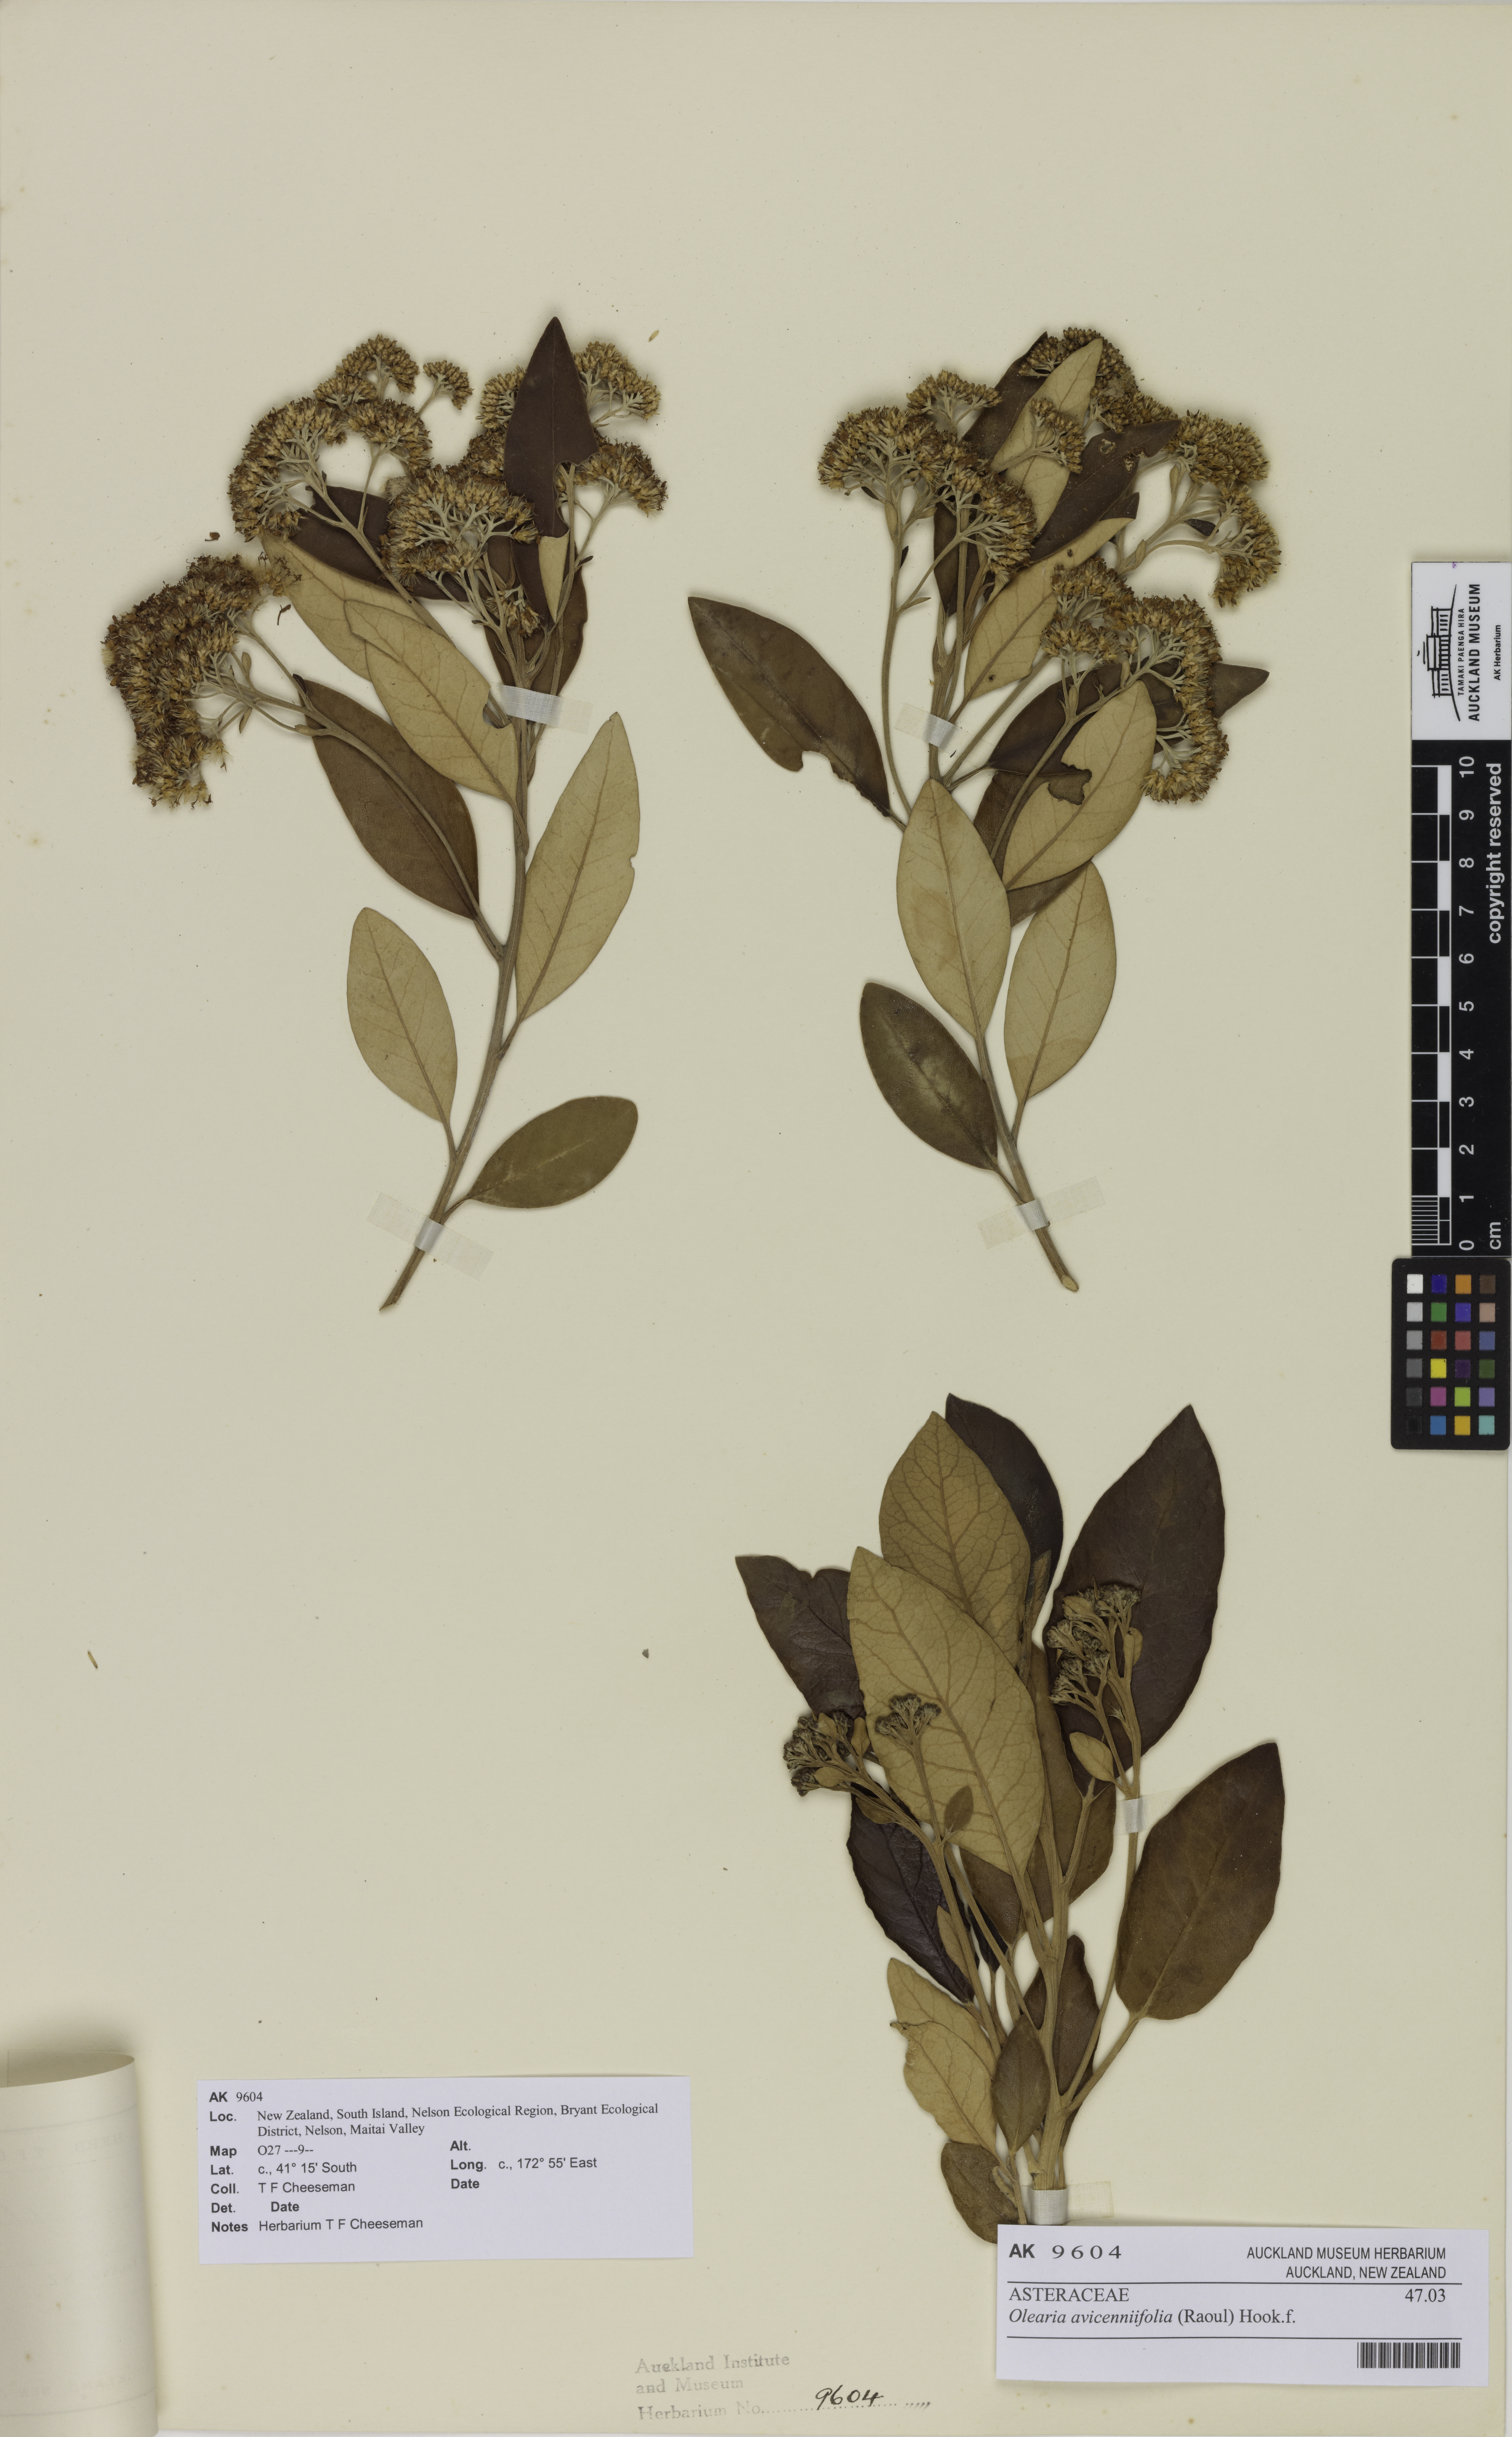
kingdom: Plantae
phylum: Tracheophyta
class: Magnoliopsida
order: Asterales
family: Asteraceae
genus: Olearia
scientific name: Olearia avicenniifolia
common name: Mangrove-leaf daisybush
